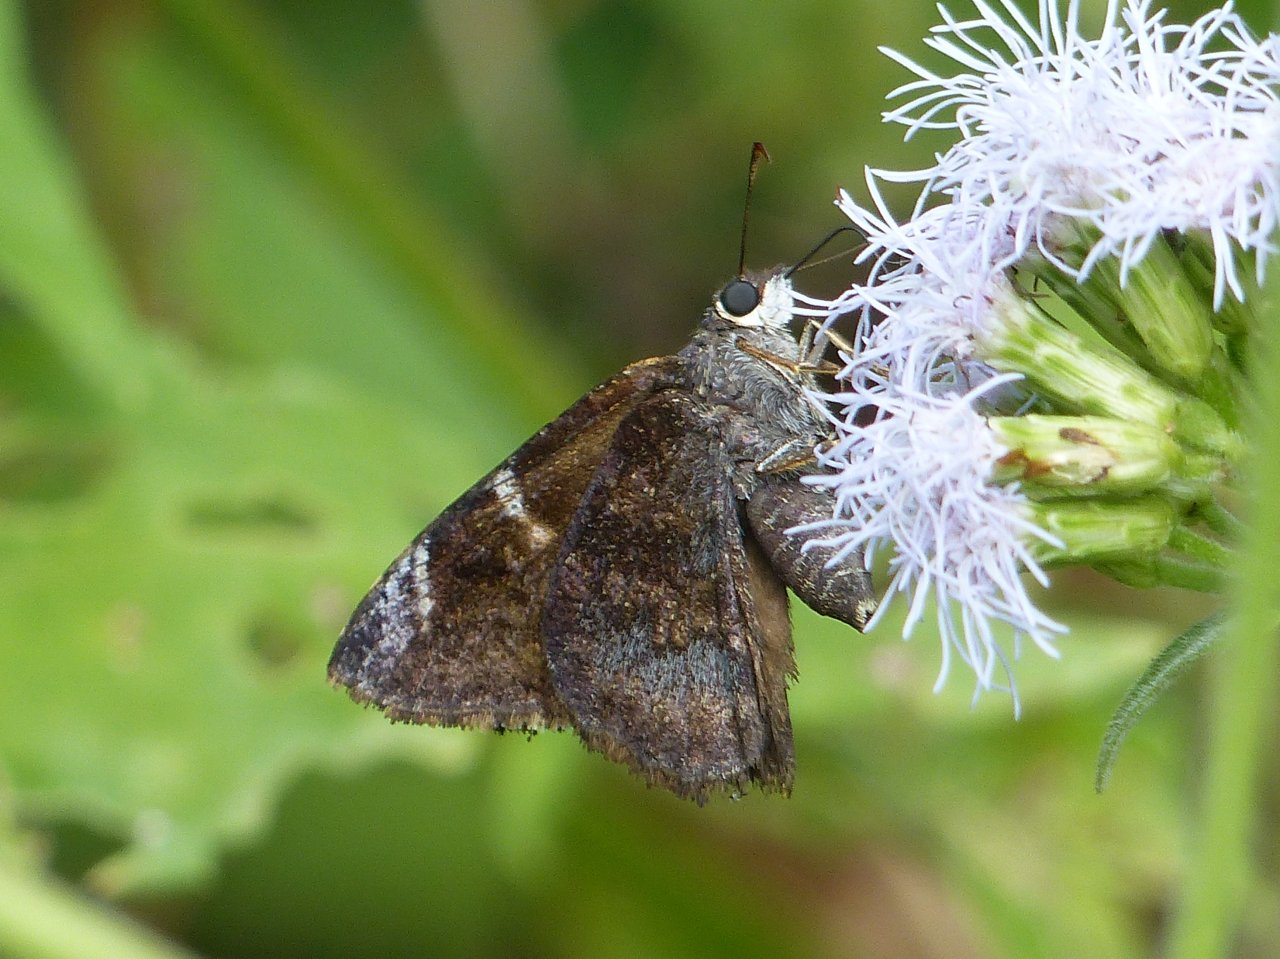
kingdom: Animalia
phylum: Arthropoda
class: Insecta
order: Lepidoptera
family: Hesperiidae
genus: Caicella
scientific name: Caicella calchas
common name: Mimosa Skipper
